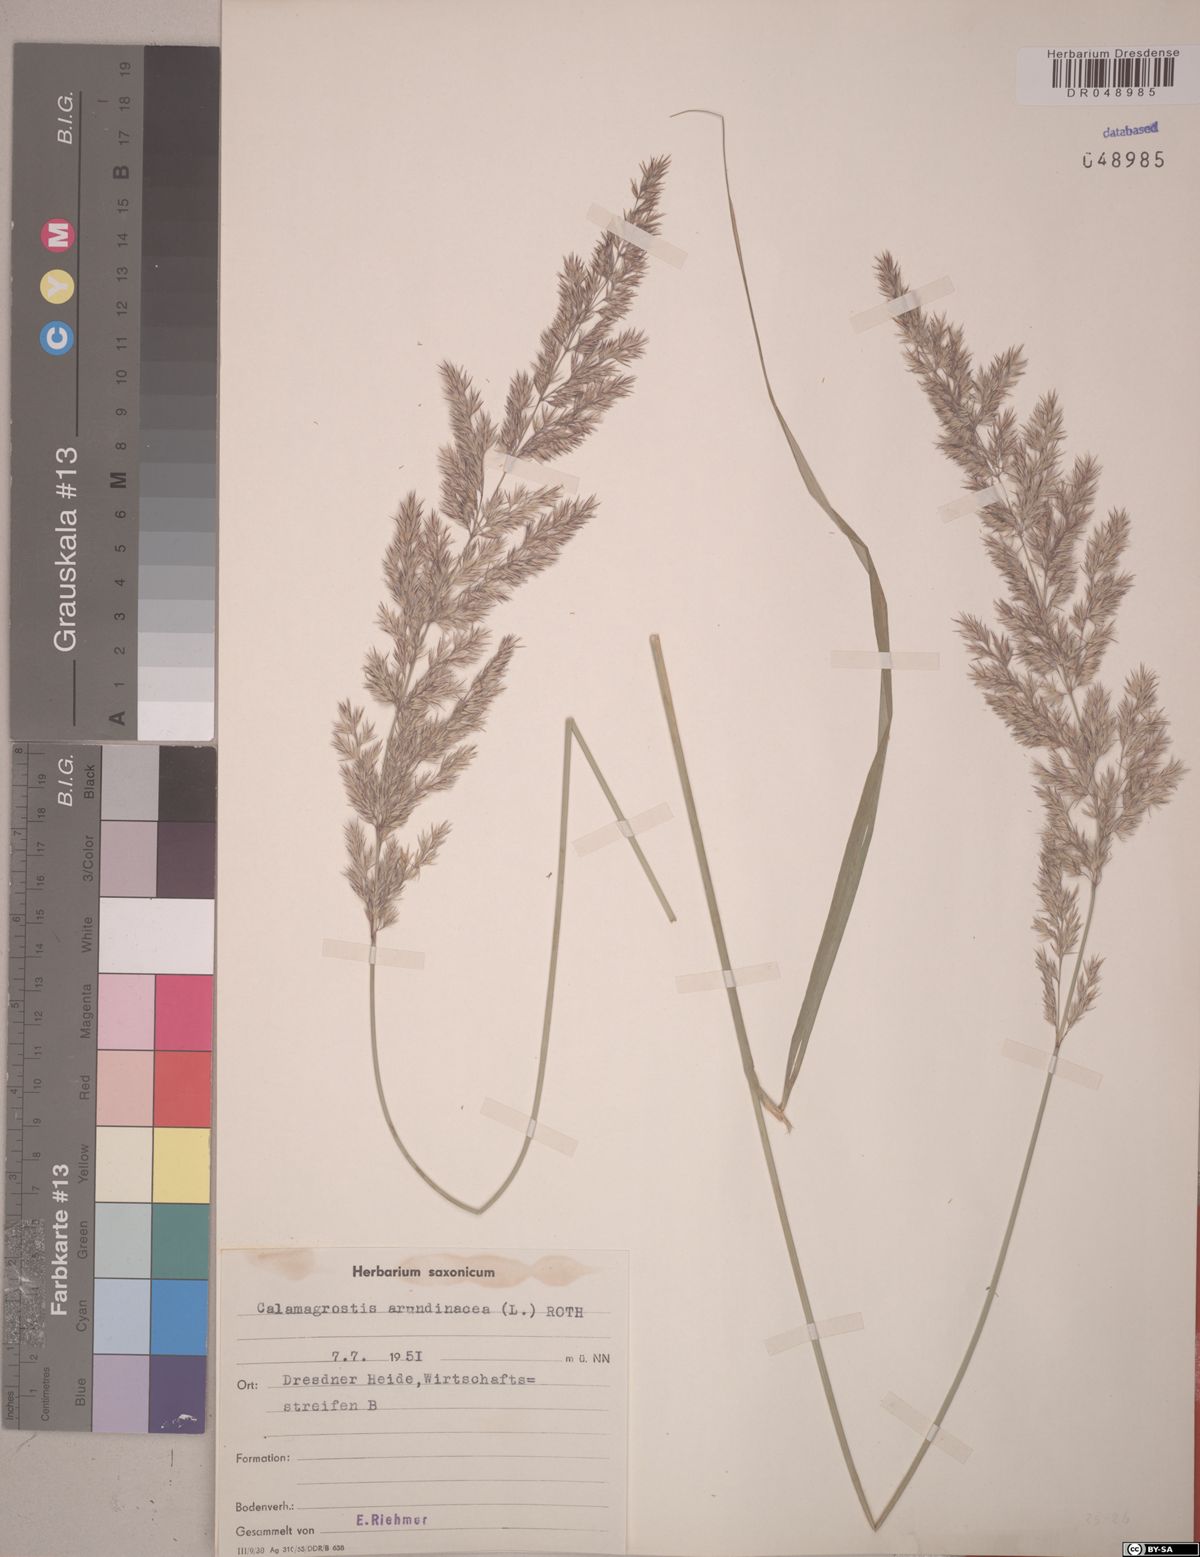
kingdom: Plantae
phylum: Tracheophyta
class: Liliopsida
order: Poales
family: Poaceae
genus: Calamagrostis
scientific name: Calamagrostis arundinacea
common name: Metskastik
